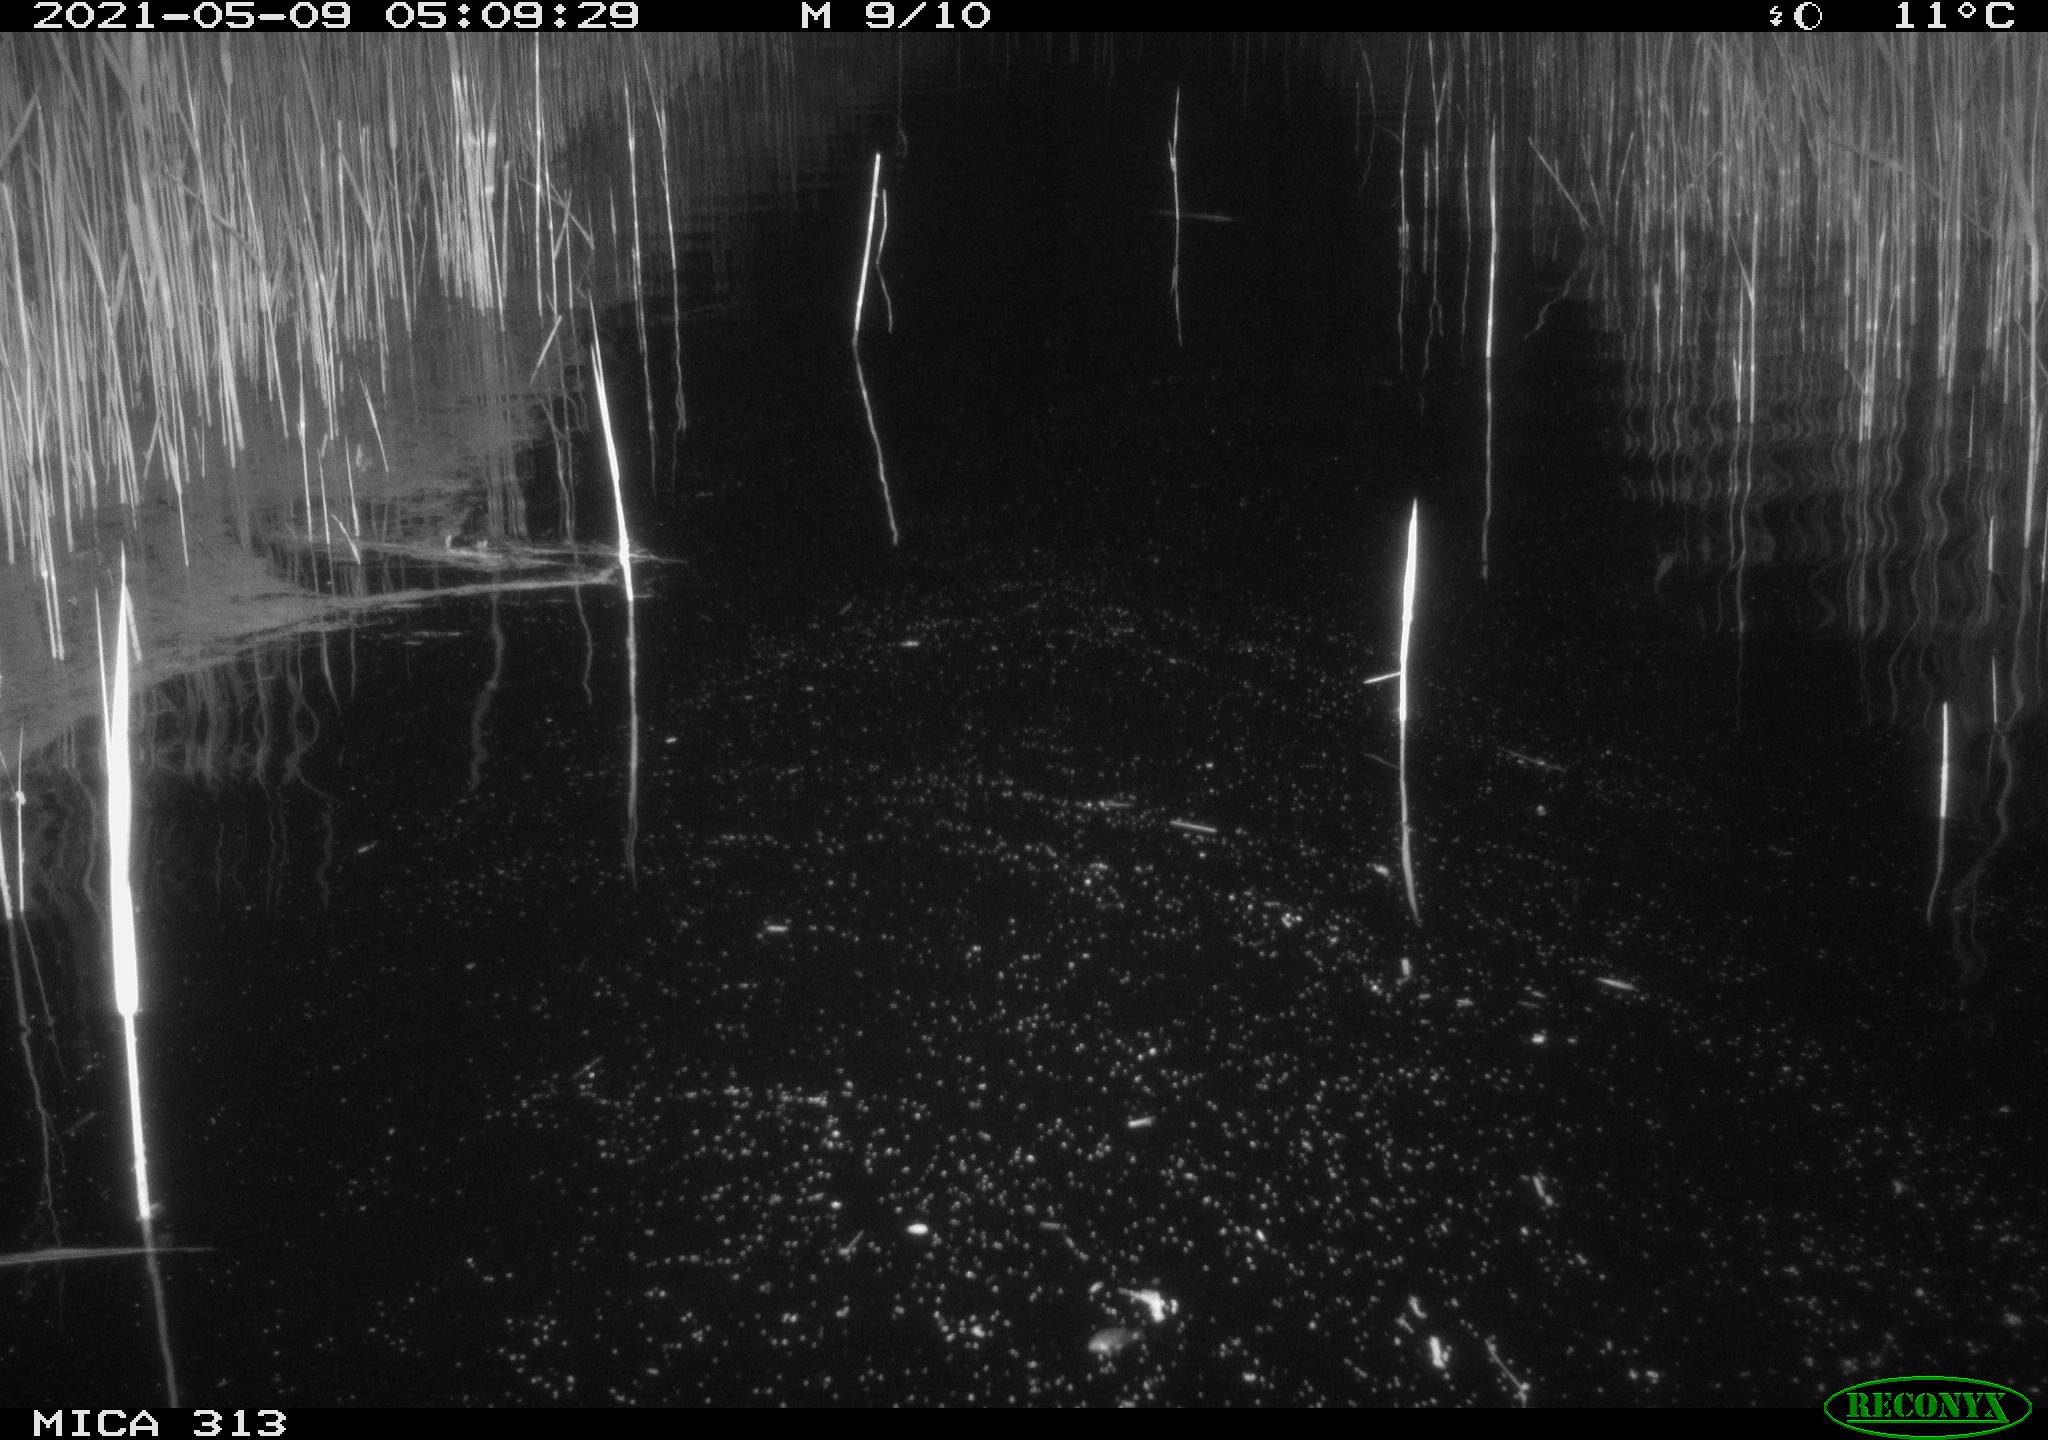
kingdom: Animalia
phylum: Chordata
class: Aves
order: Gruiformes
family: Rallidae
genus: Gallinula
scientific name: Gallinula chloropus
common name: Common moorhen
